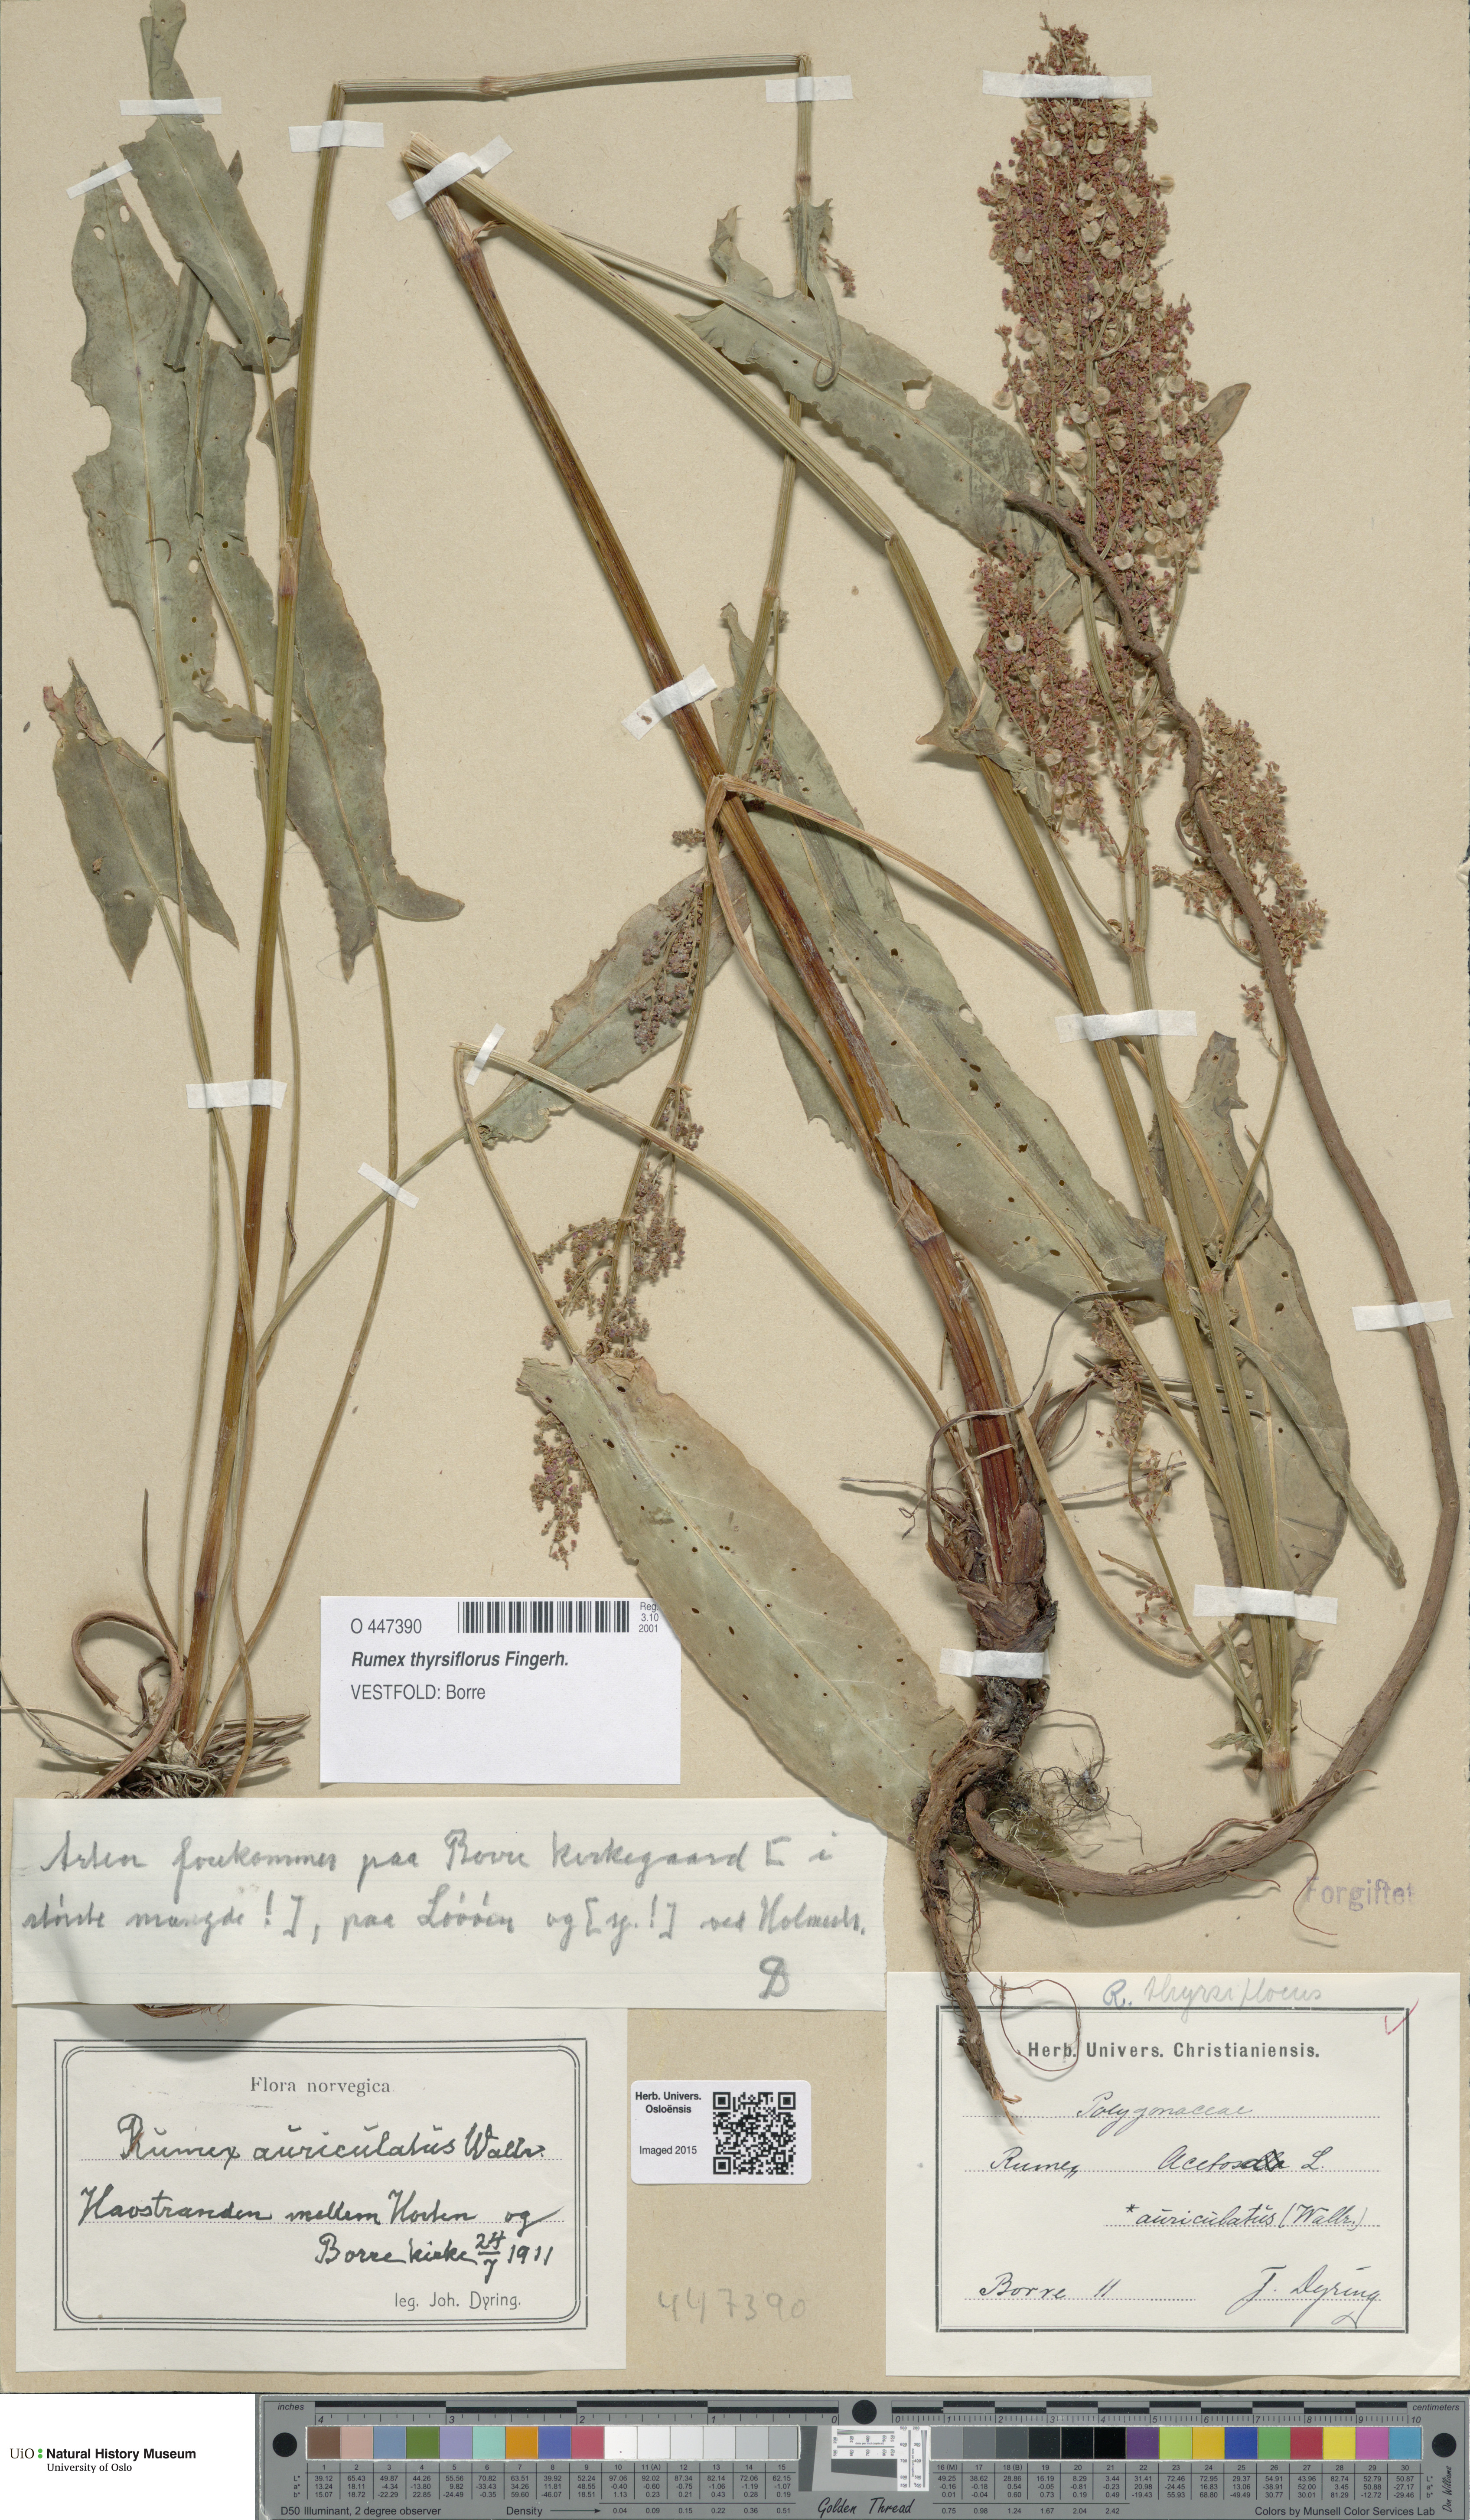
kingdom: Plantae
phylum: Tracheophyta
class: Magnoliopsida
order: Caryophyllales
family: Polygonaceae
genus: Rumex
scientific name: Rumex thyrsiflorus
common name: Garden sorrel
